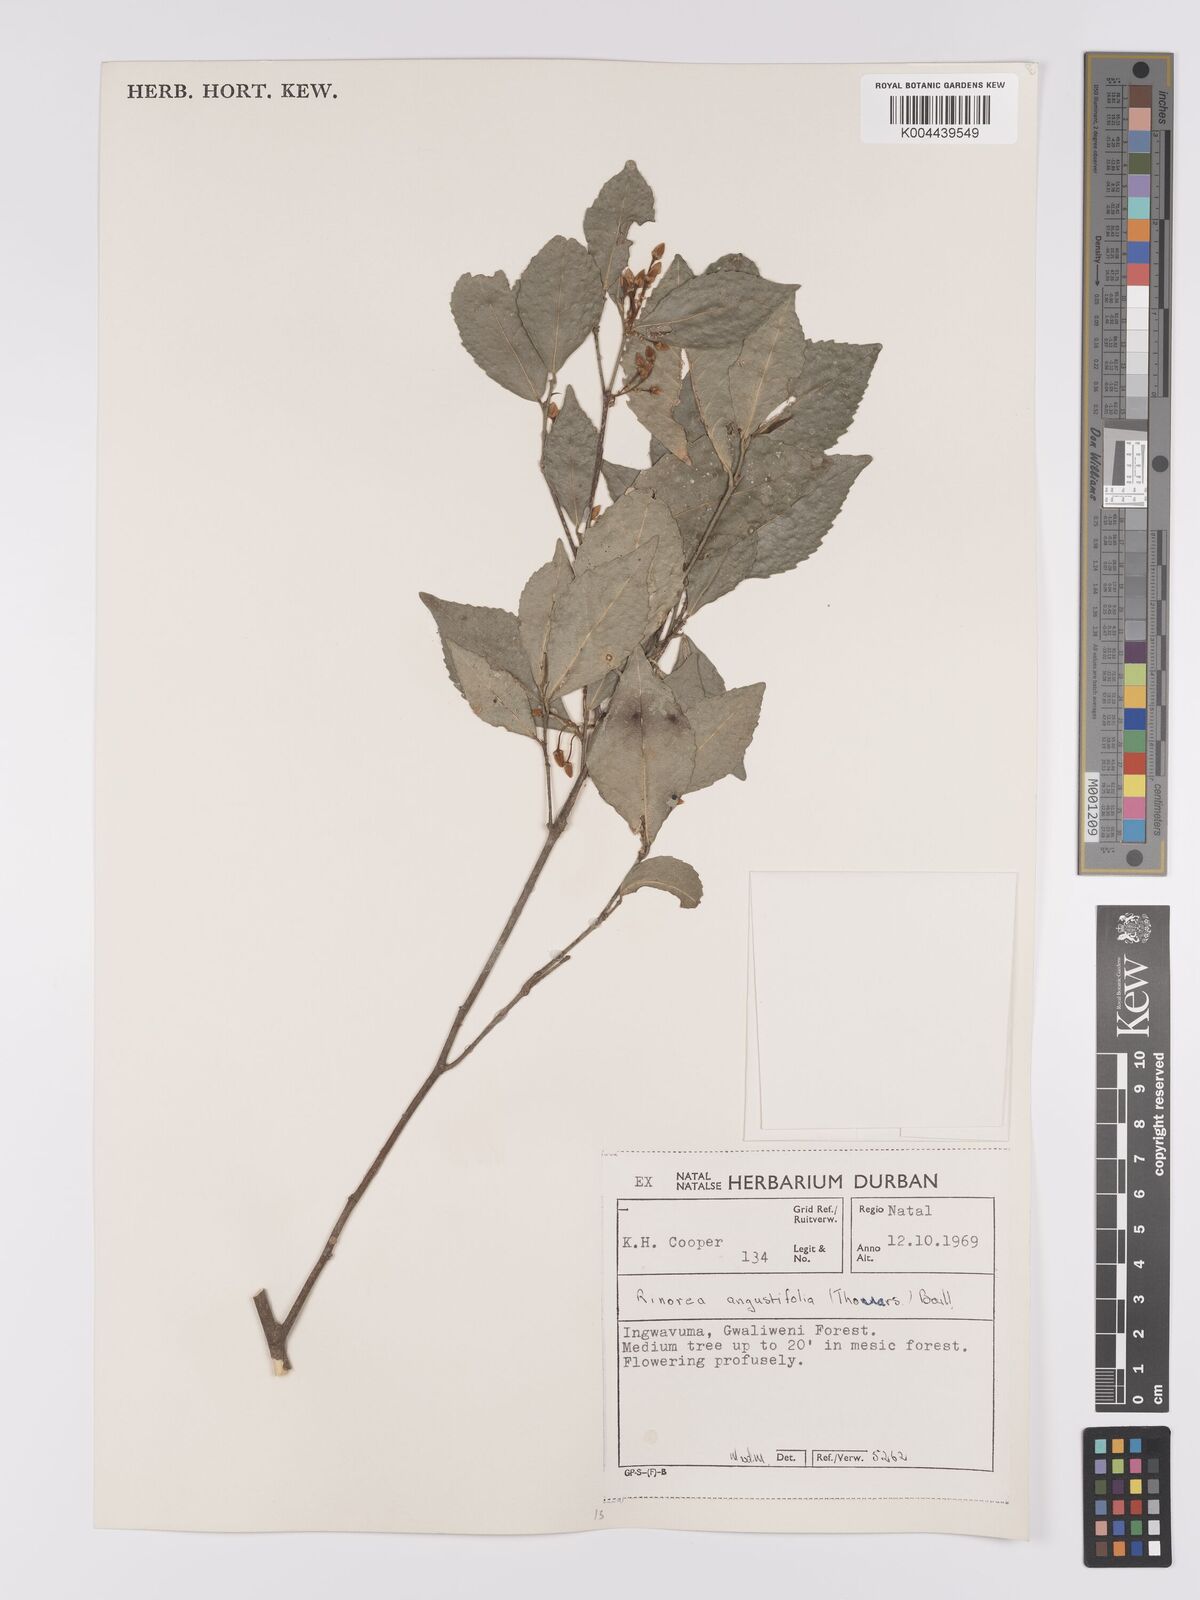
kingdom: Plantae
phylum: Tracheophyta
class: Magnoliopsida
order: Malpighiales
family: Violaceae
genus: Rinorea
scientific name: Rinorea angustifolia
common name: White violet-bush
